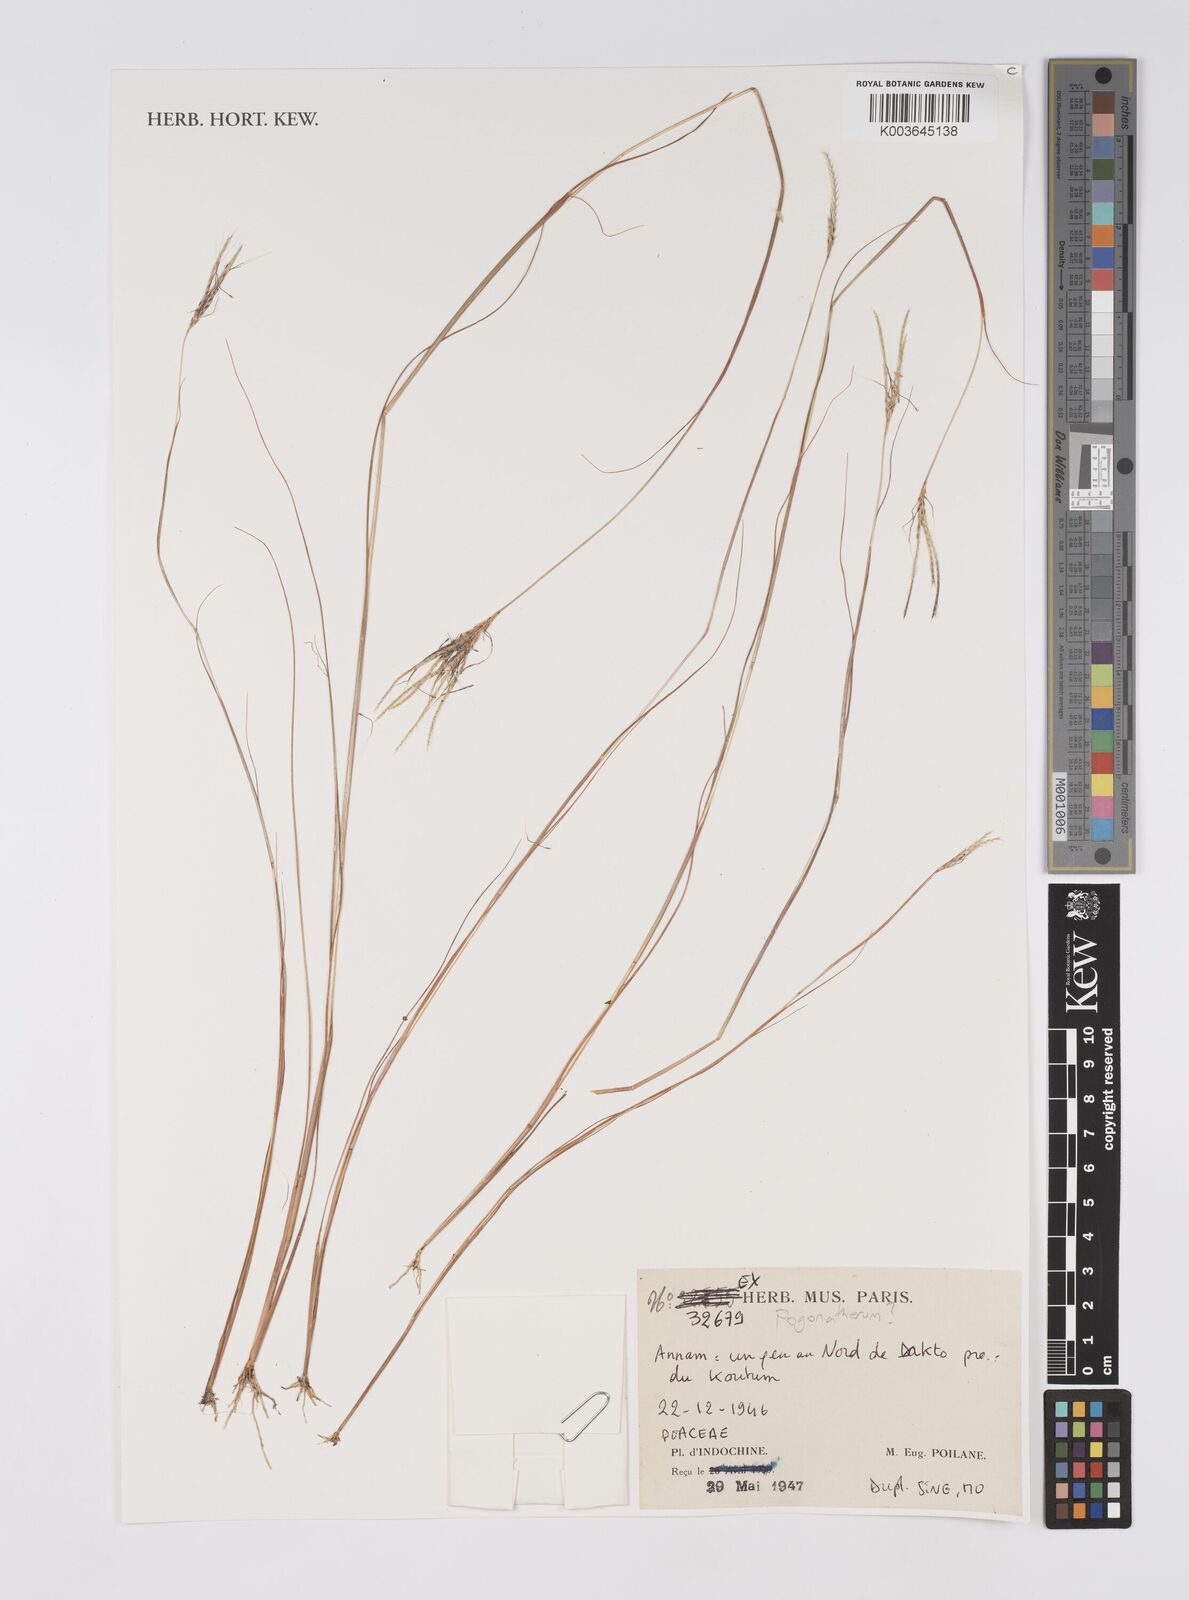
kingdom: Plantae
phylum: Tracheophyta
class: Liliopsida
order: Poales
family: Poaceae
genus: Pogonatherum
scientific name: Pogonatherum
